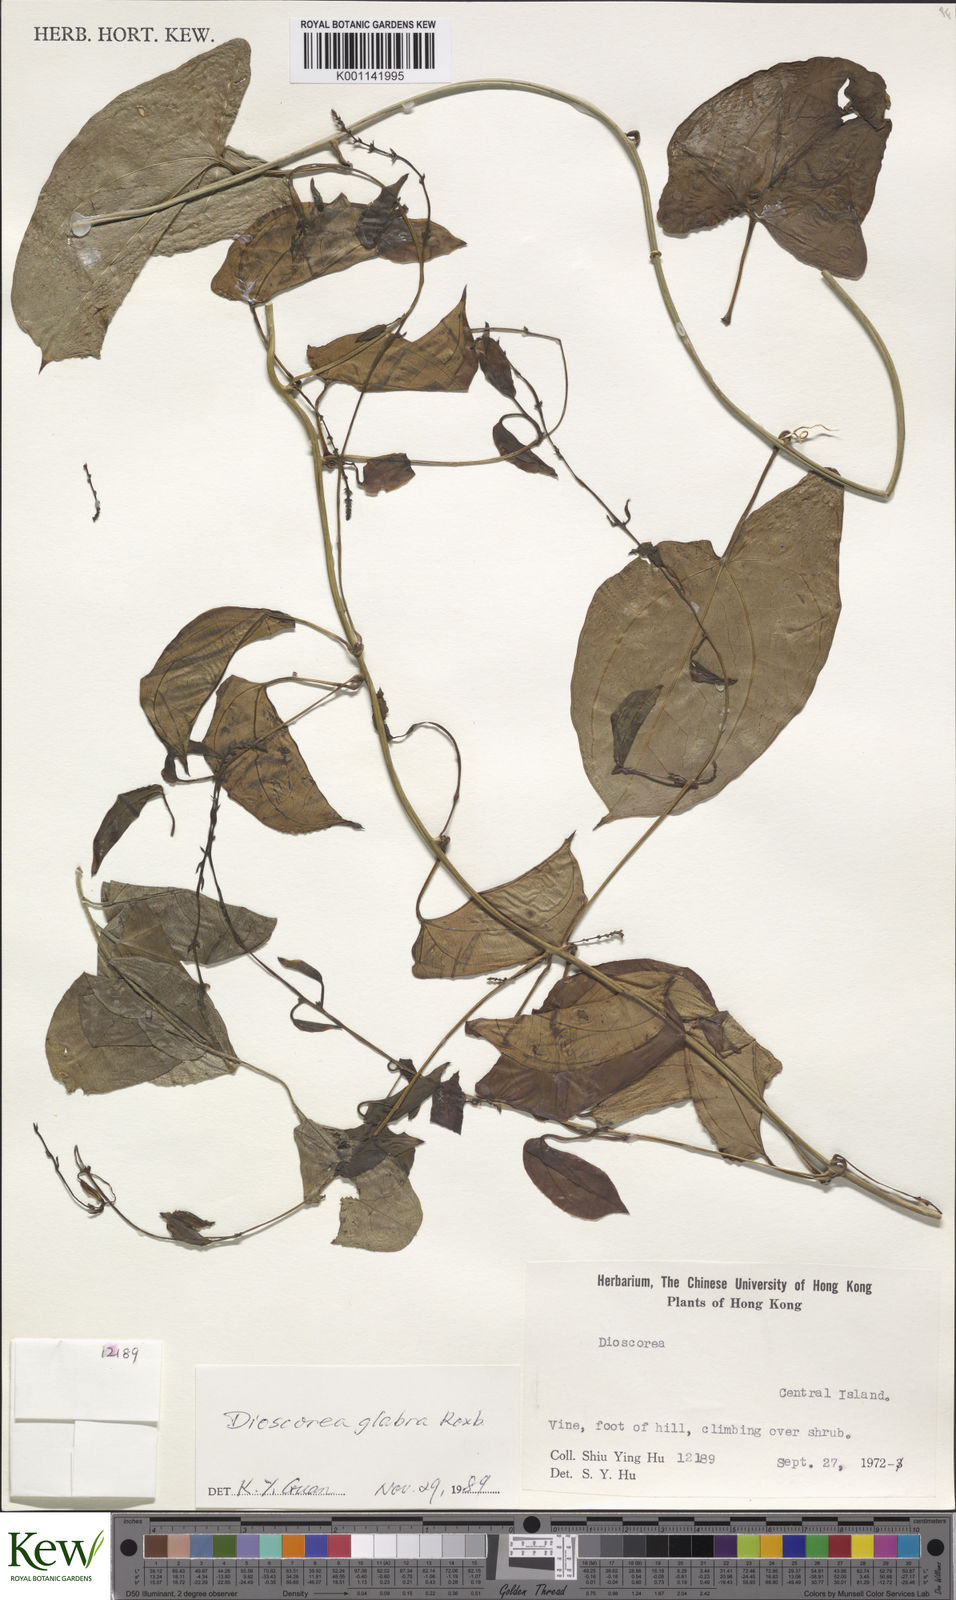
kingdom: Plantae
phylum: Tracheophyta
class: Liliopsida
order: Dioscoreales
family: Dioscoreaceae
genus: Dioscorea
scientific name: Dioscorea glabra
